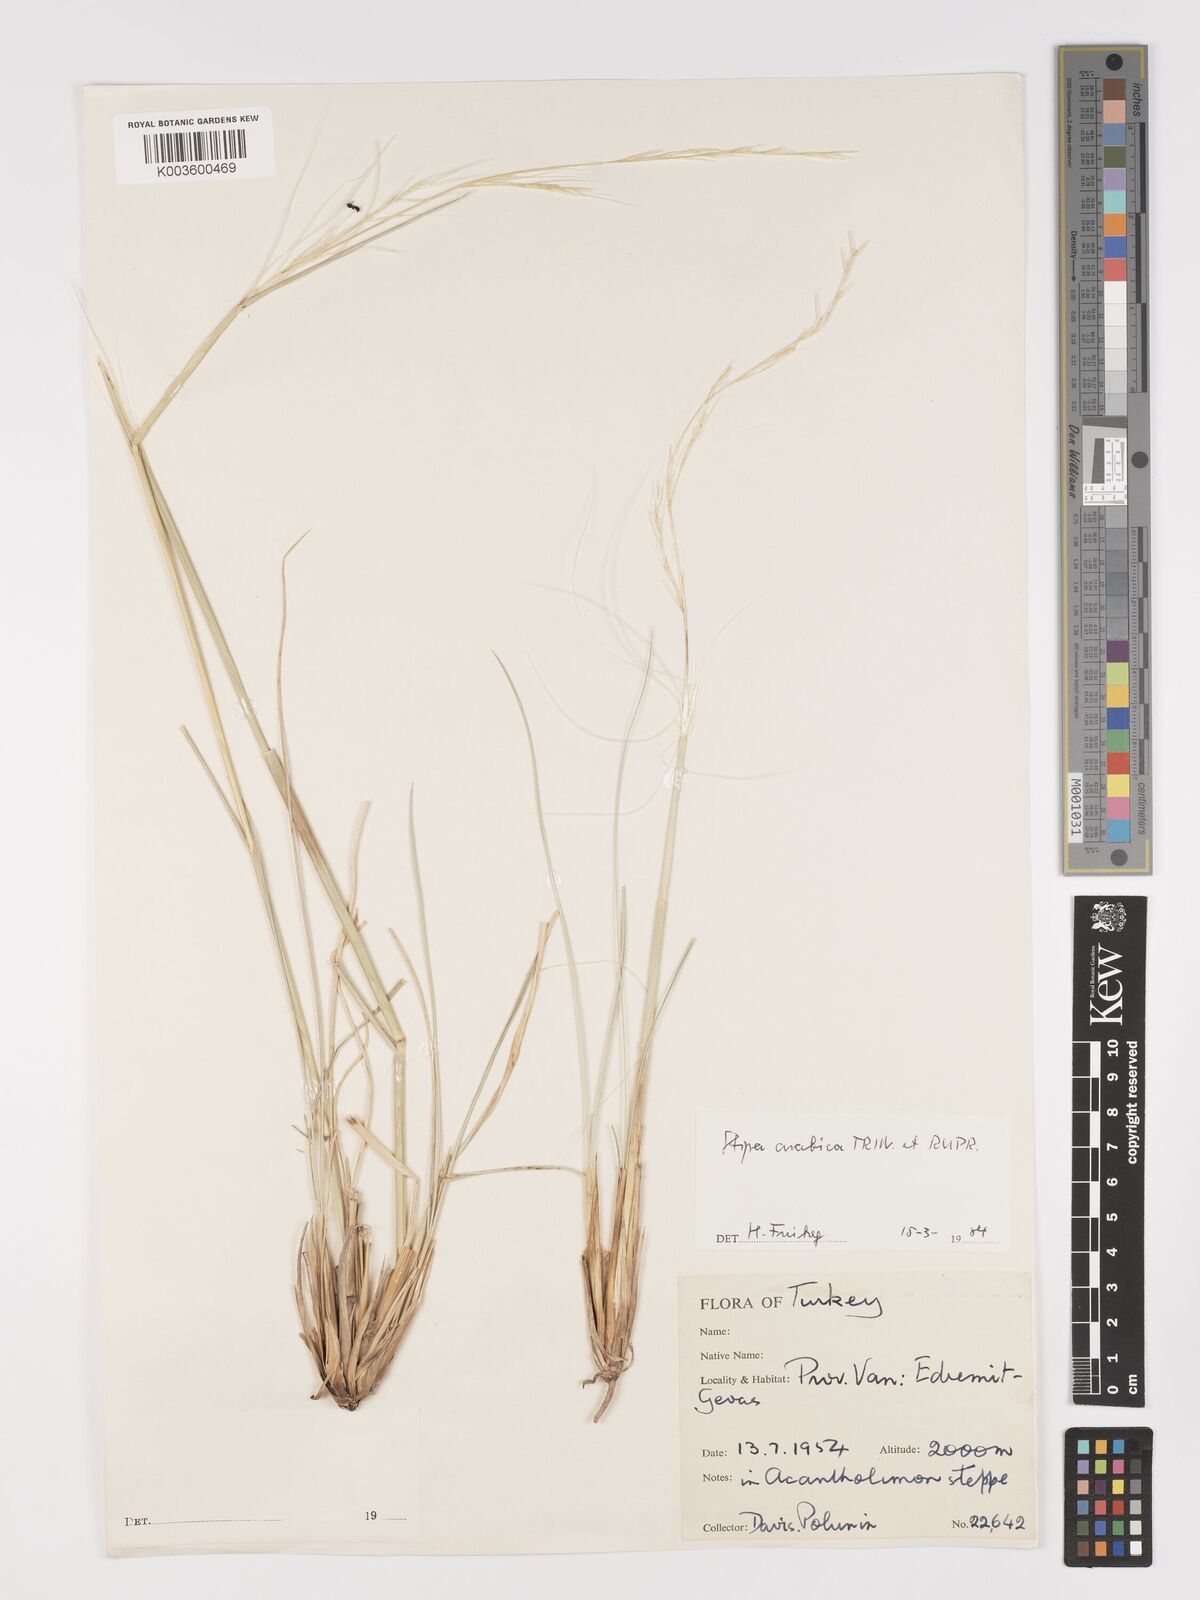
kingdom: Plantae
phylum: Tracheophyta
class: Liliopsida
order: Poales
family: Poaceae
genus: Stipa
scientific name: Stipa arabica
